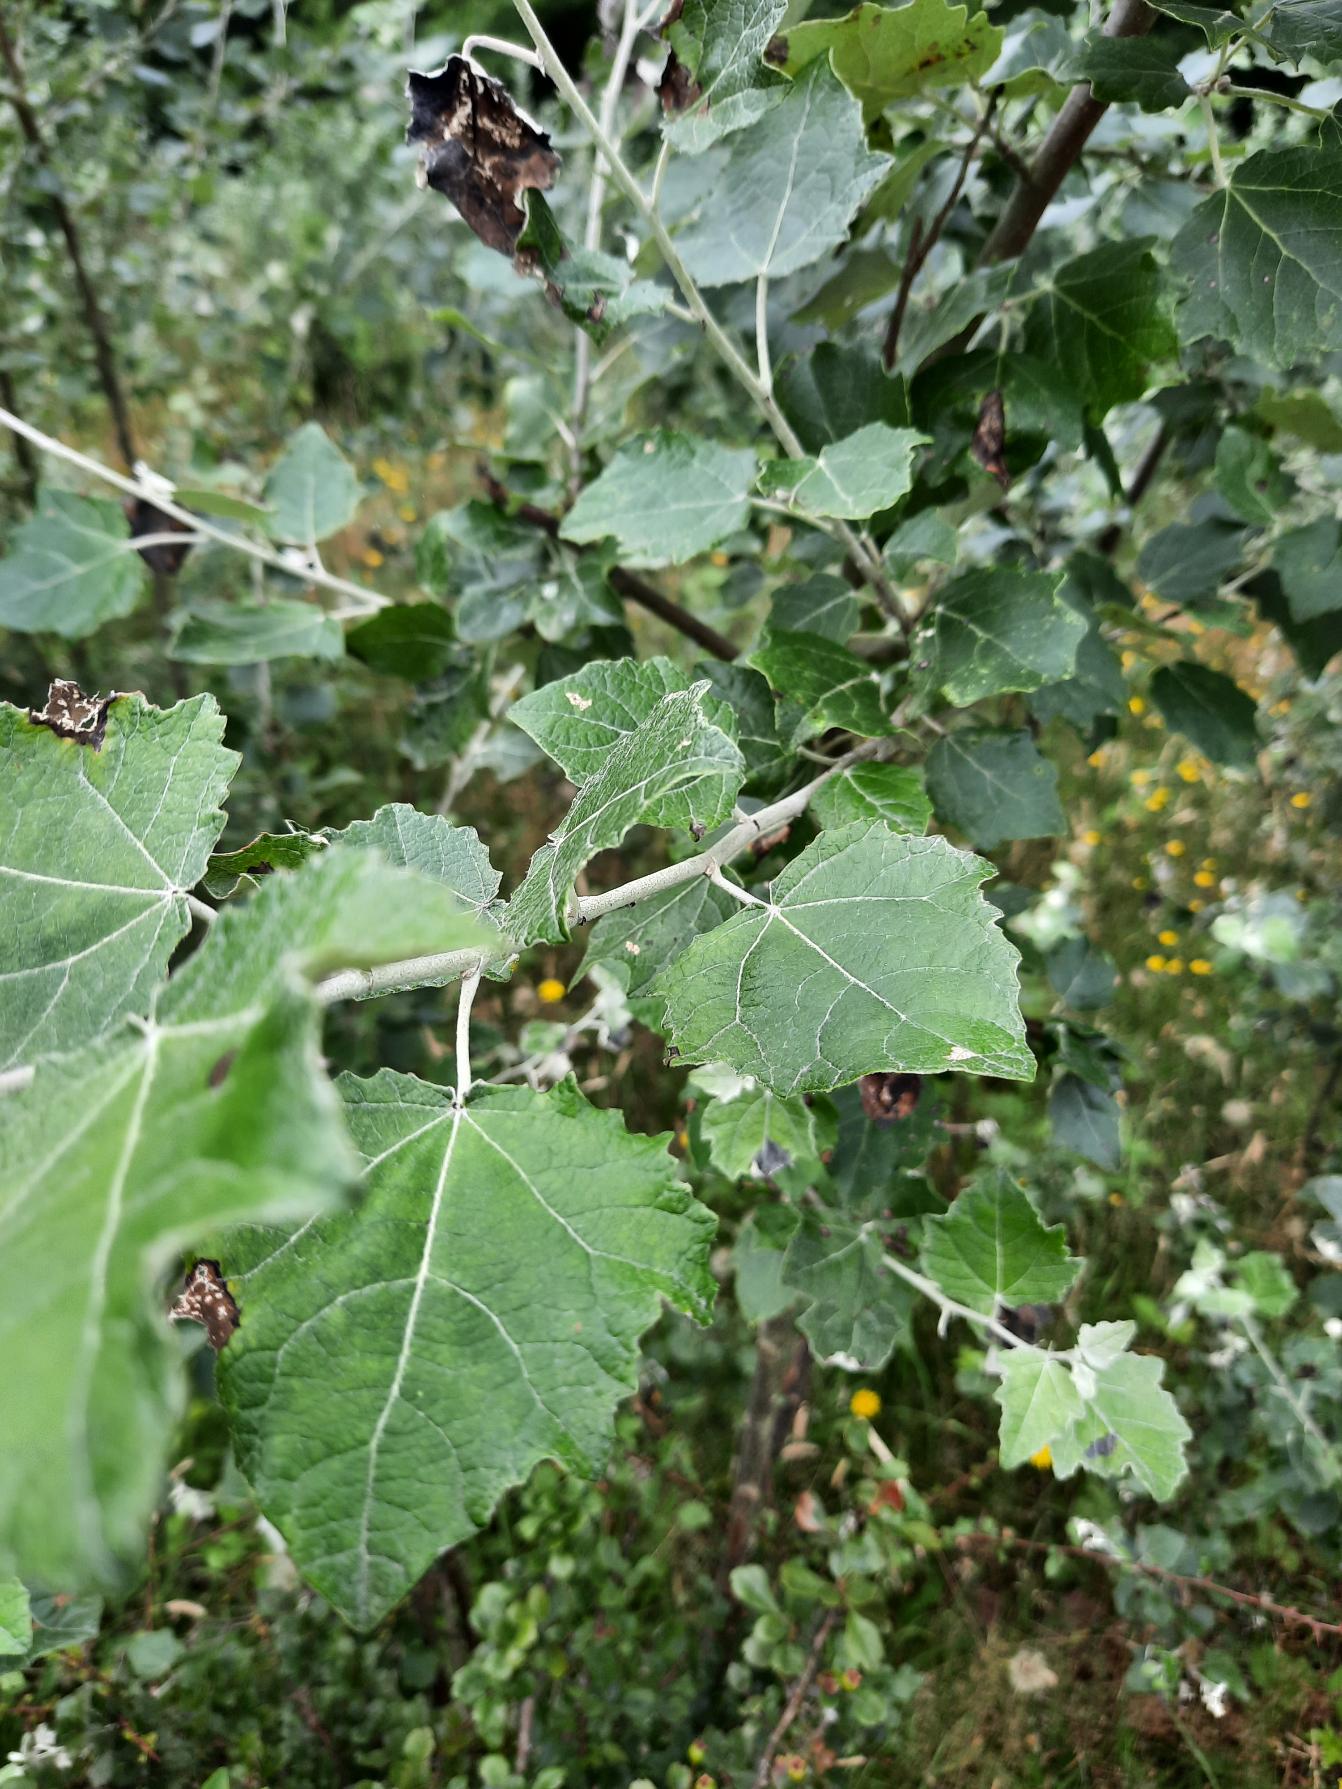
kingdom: Plantae
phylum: Tracheophyta
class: Magnoliopsida
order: Malpighiales
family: Salicaceae
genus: Populus
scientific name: Populus canescens
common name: Grå-poppel
